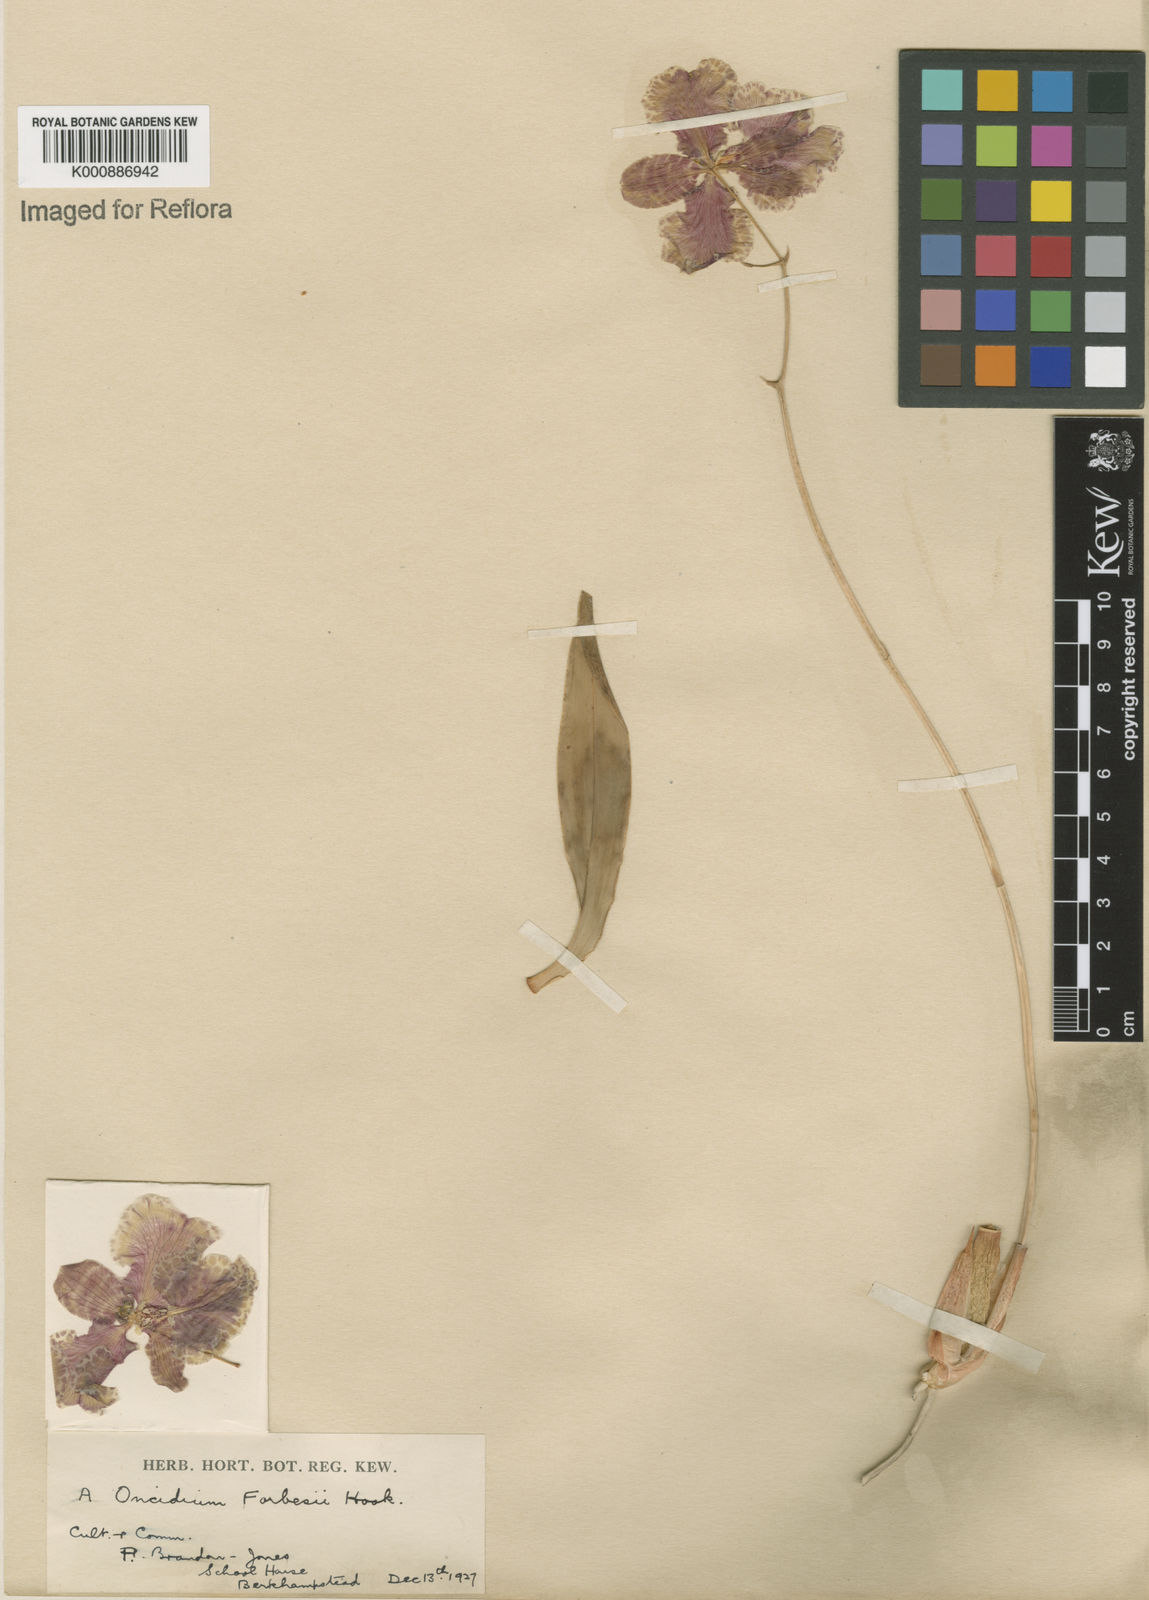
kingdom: Plantae
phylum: Tracheophyta
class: Liliopsida
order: Asparagales
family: Orchidaceae
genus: Gomesa
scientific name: Gomesa forbesii
